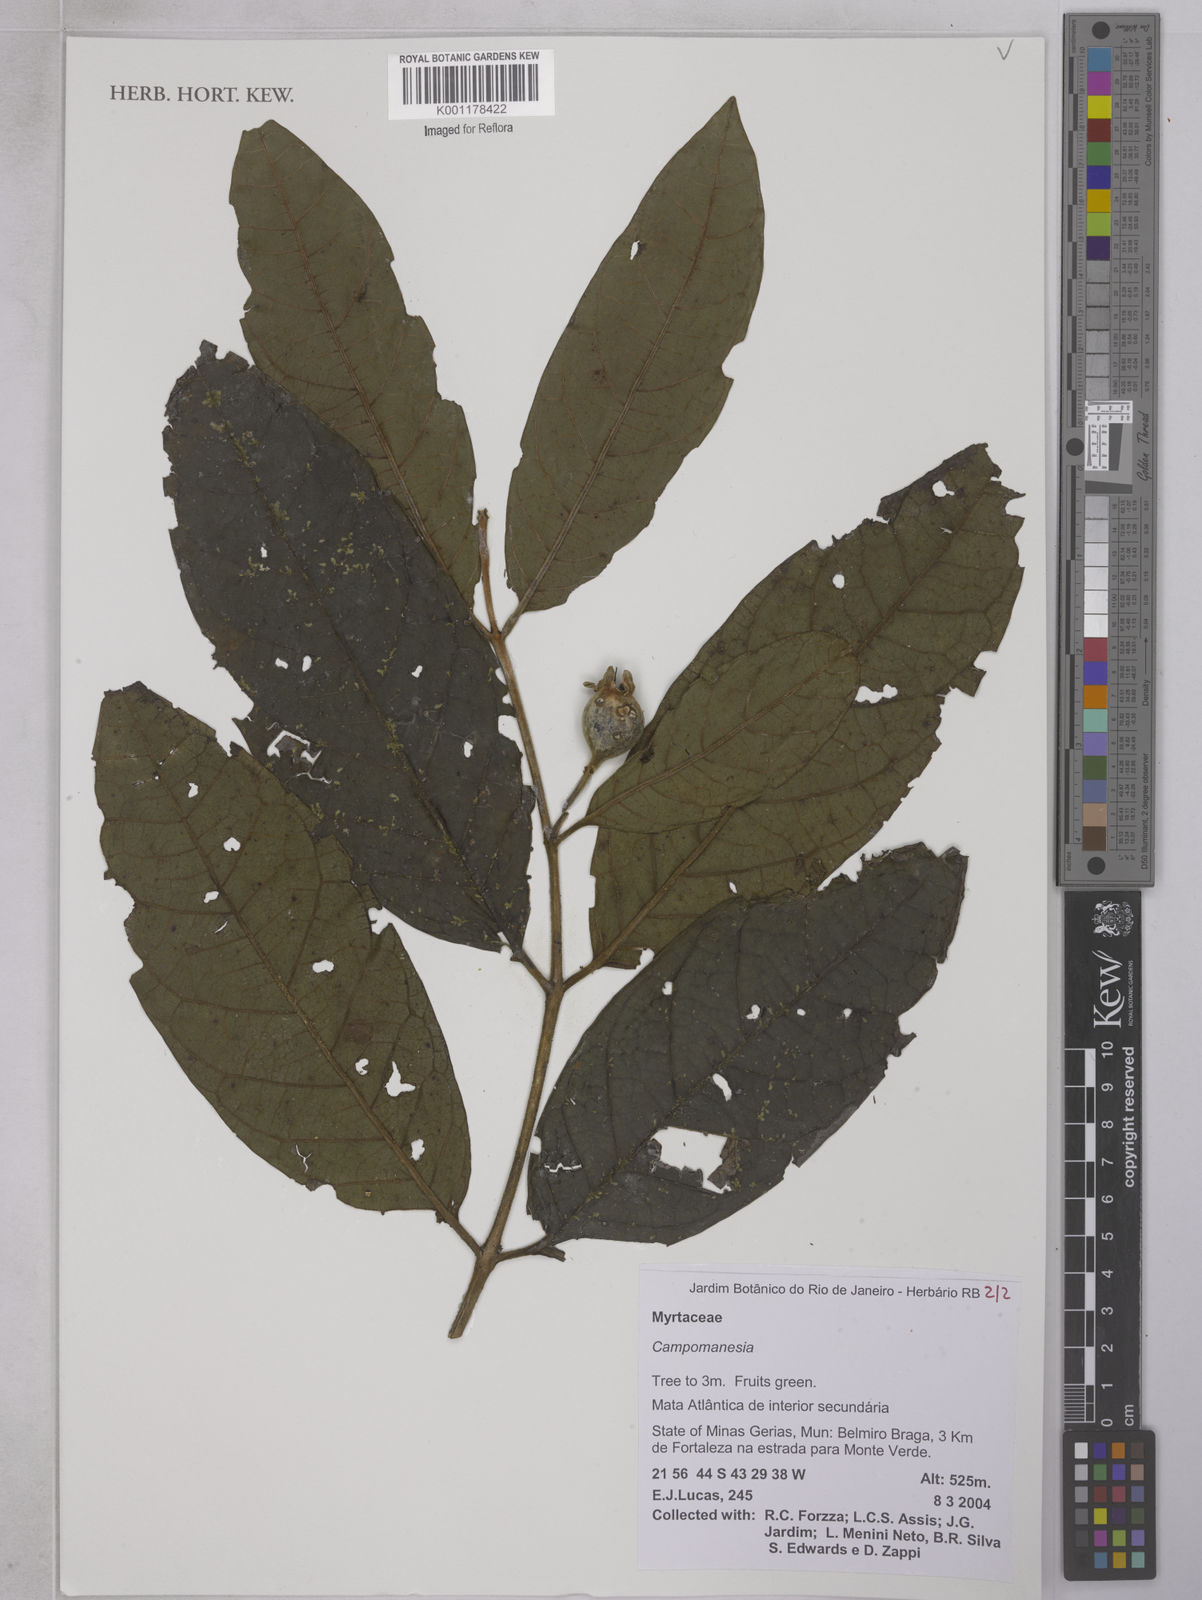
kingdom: Plantae
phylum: Tracheophyta
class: Magnoliopsida
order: Myrtales
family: Myrtaceae
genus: Campomanesia
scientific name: Campomanesia
